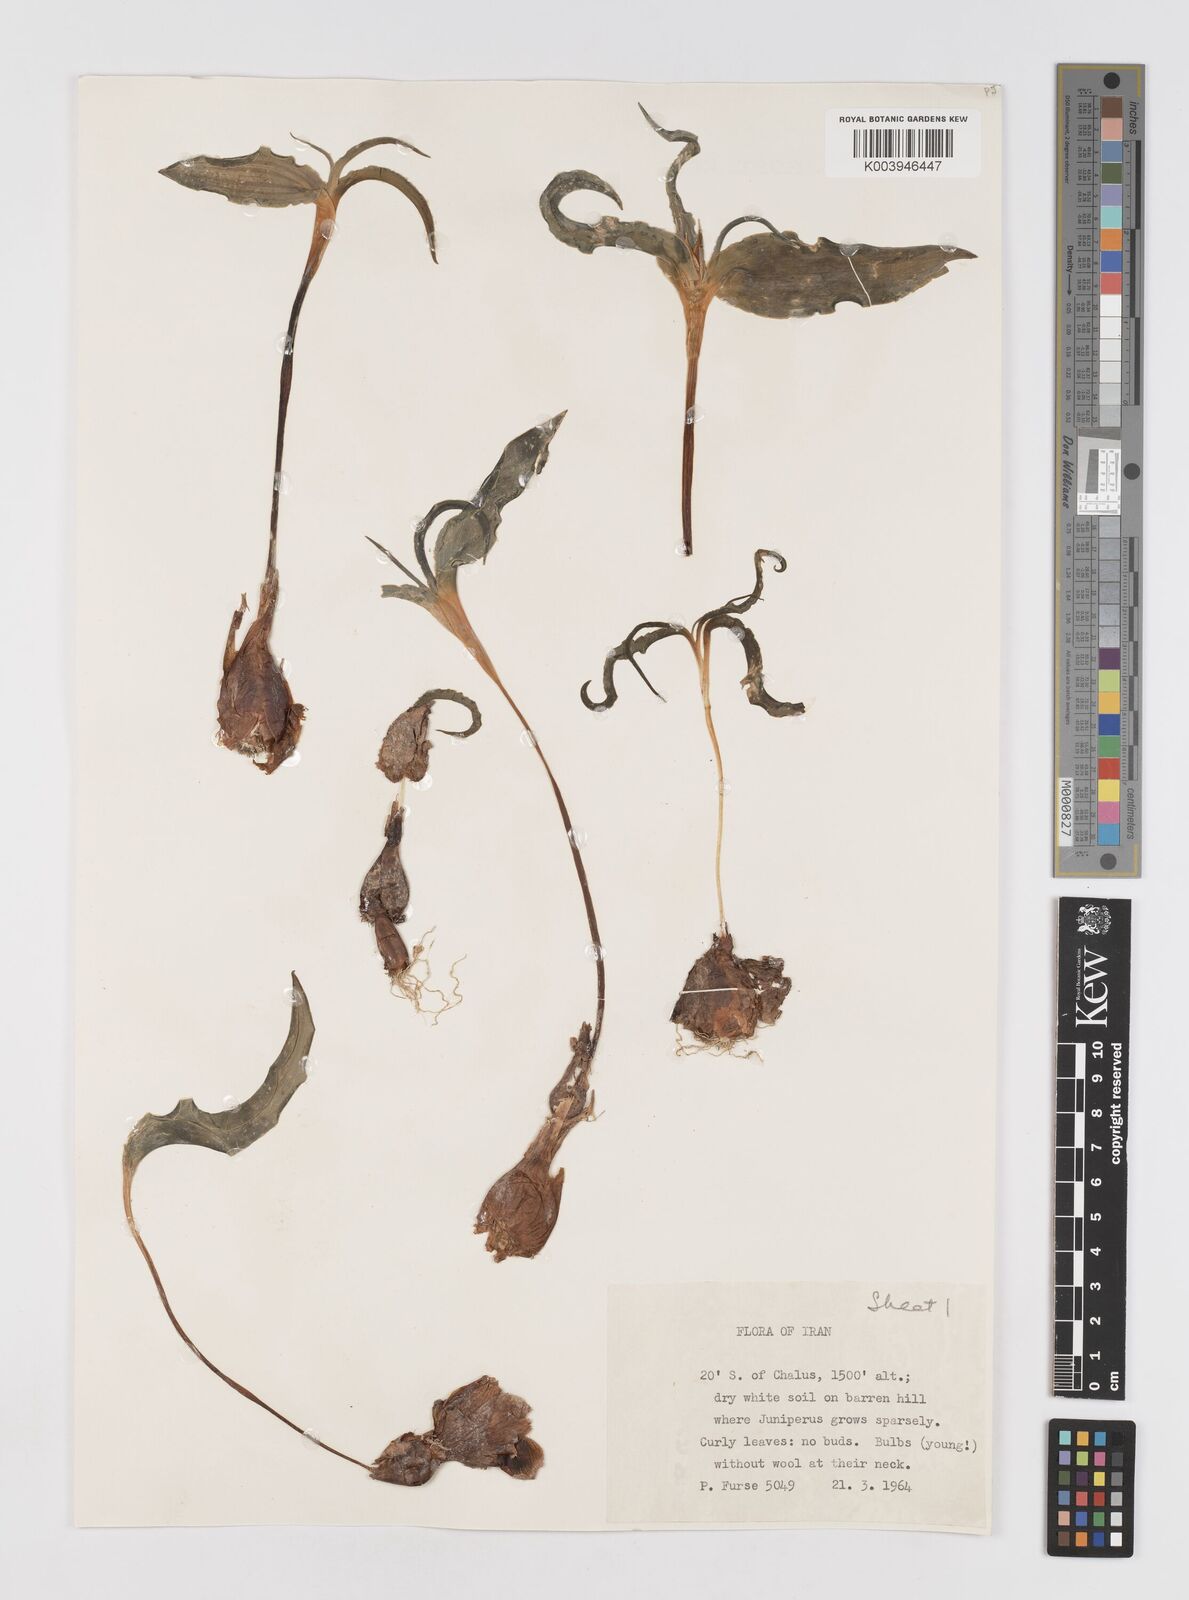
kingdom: Plantae
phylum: Tracheophyta
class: Liliopsida
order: Liliales
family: Liliaceae
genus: Tulipa
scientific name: Tulipa
